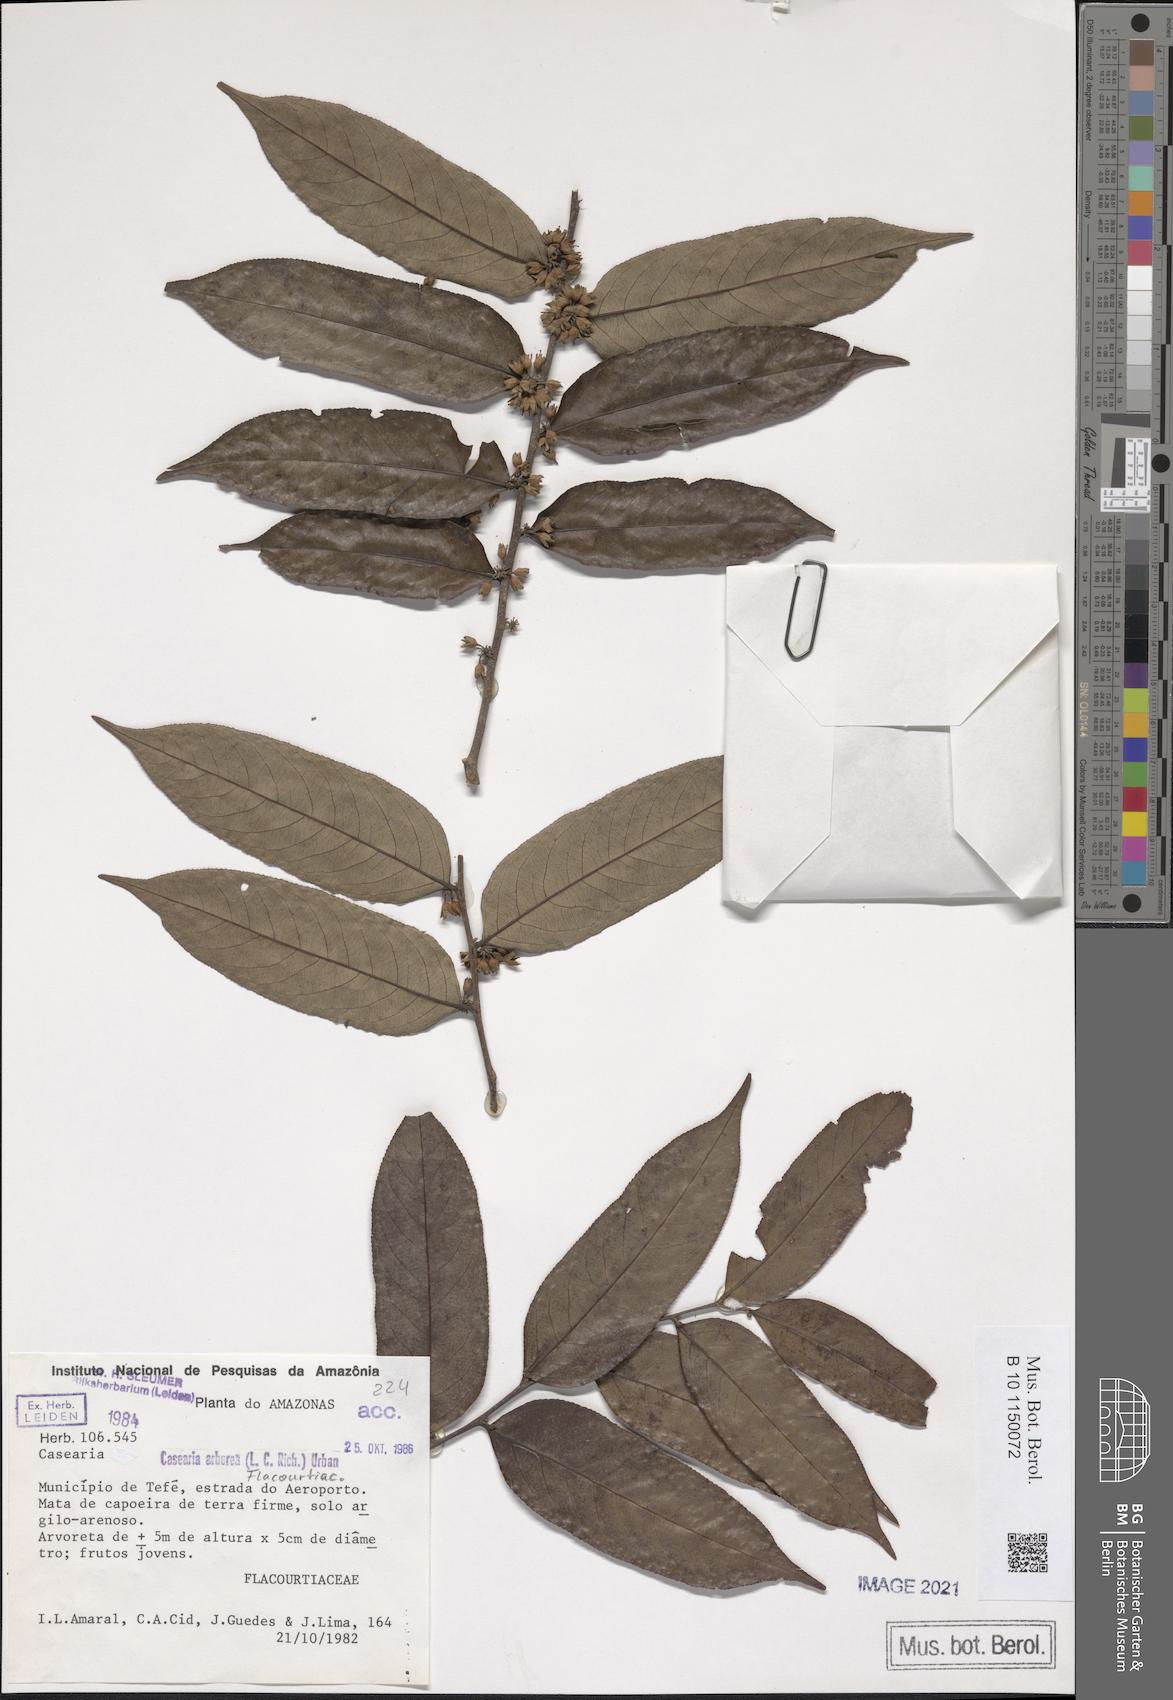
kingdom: Plantae
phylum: Tracheophyta
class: Magnoliopsida
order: Malpighiales
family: Salicaceae
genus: Casearia
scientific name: Casearia arborea
